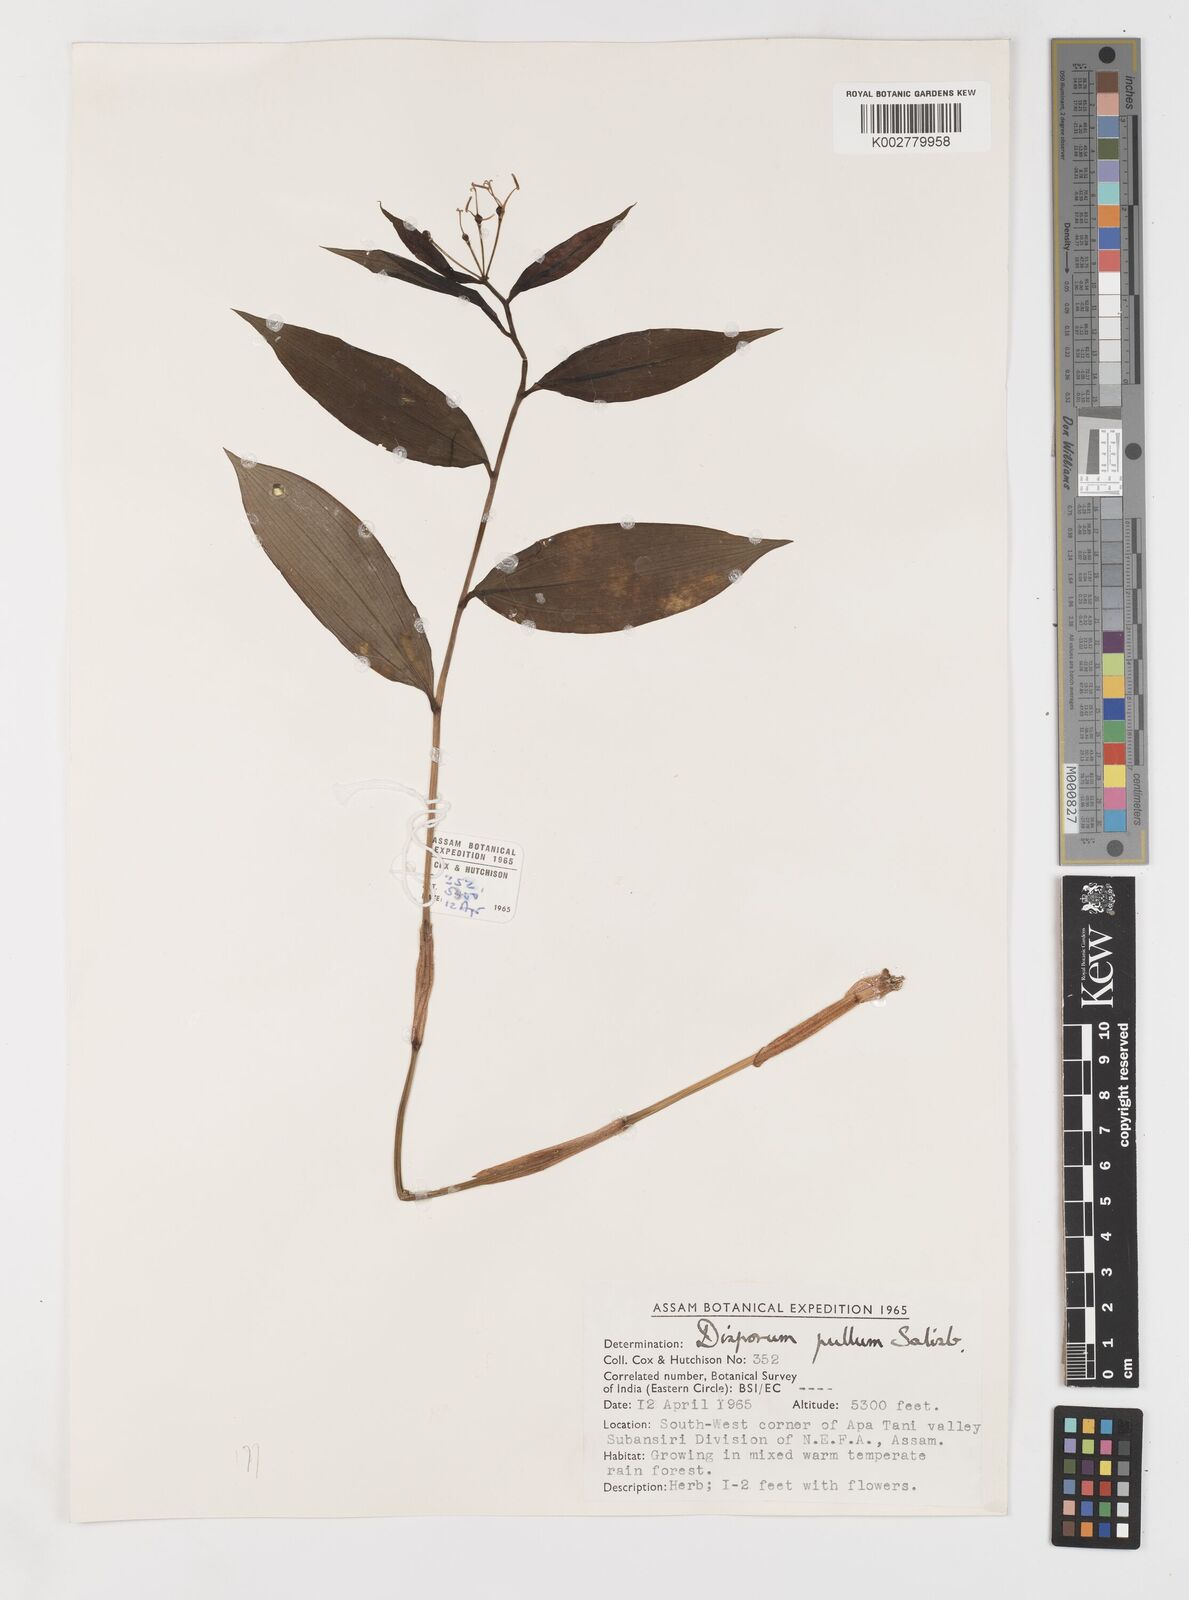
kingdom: Plantae
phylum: Tracheophyta
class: Liliopsida
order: Liliales
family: Colchicaceae
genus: Disporum
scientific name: Disporum cantoniense
